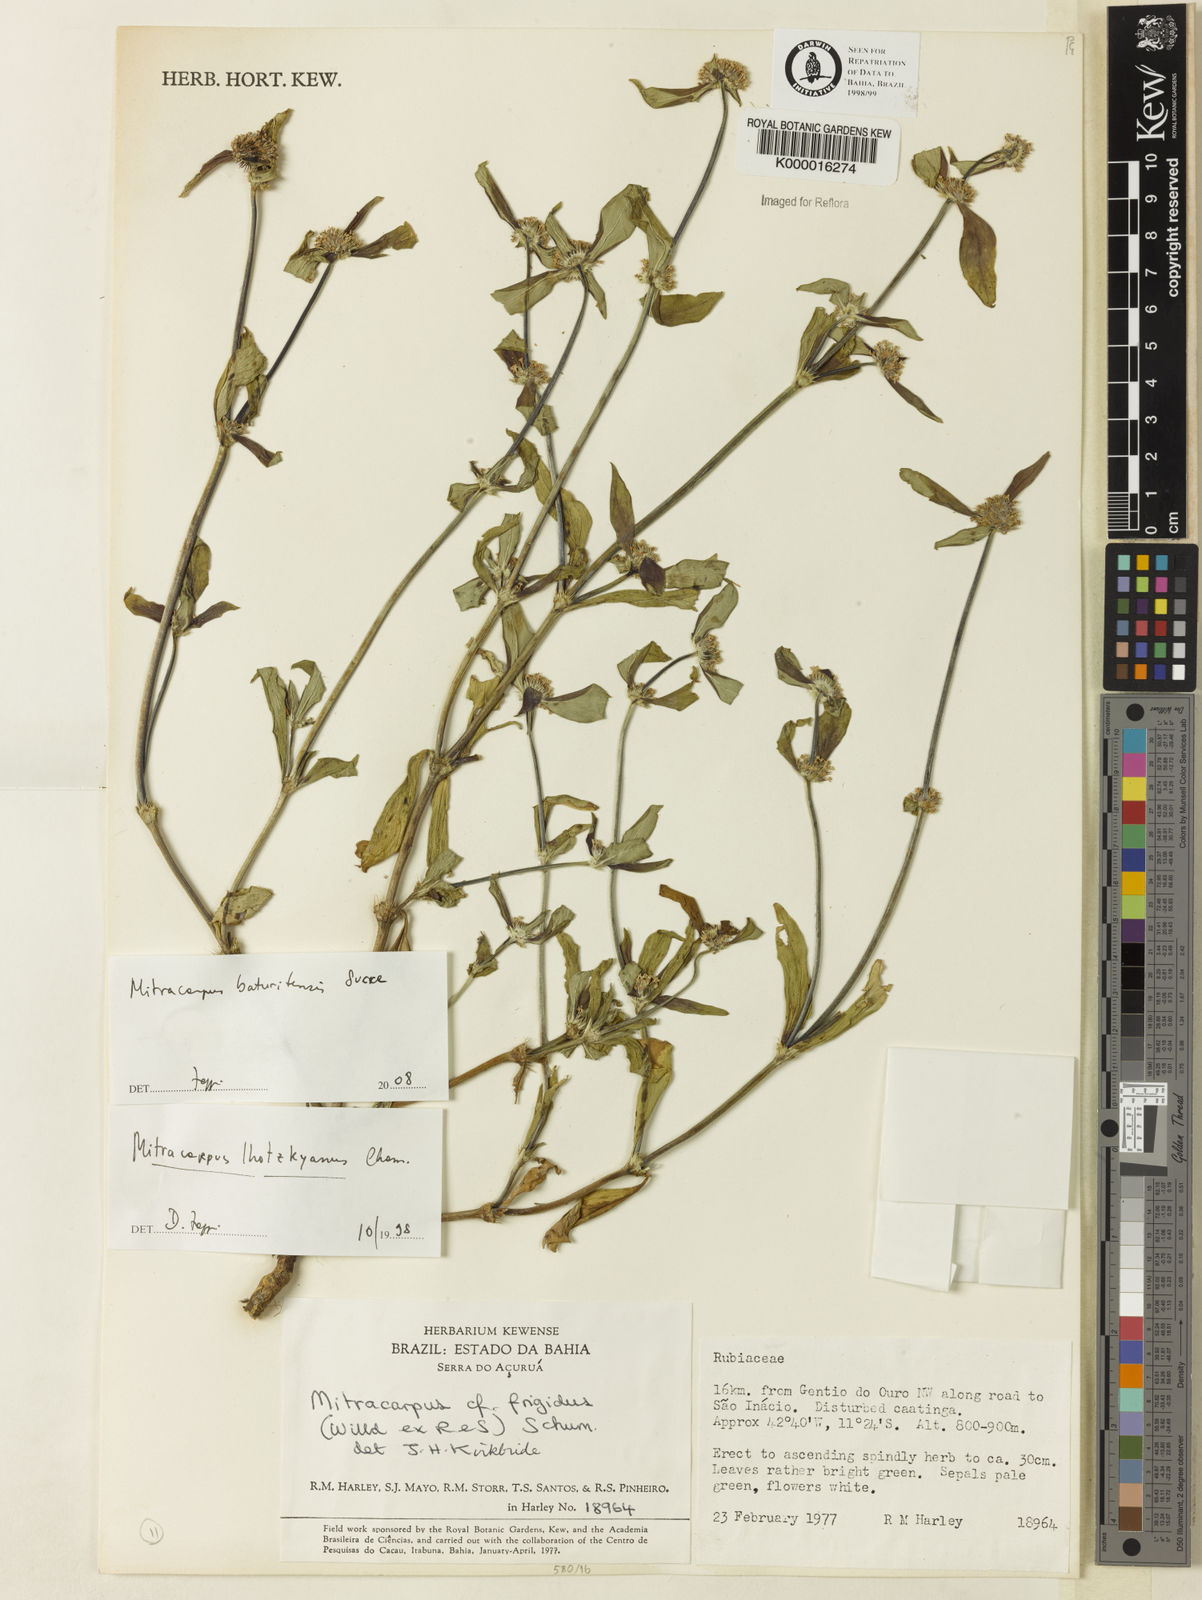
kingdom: Plantae
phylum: Tracheophyta
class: Magnoliopsida
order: Gentianales
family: Rubiaceae
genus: Mitracarpus
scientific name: Mitracarpus baturitensis
